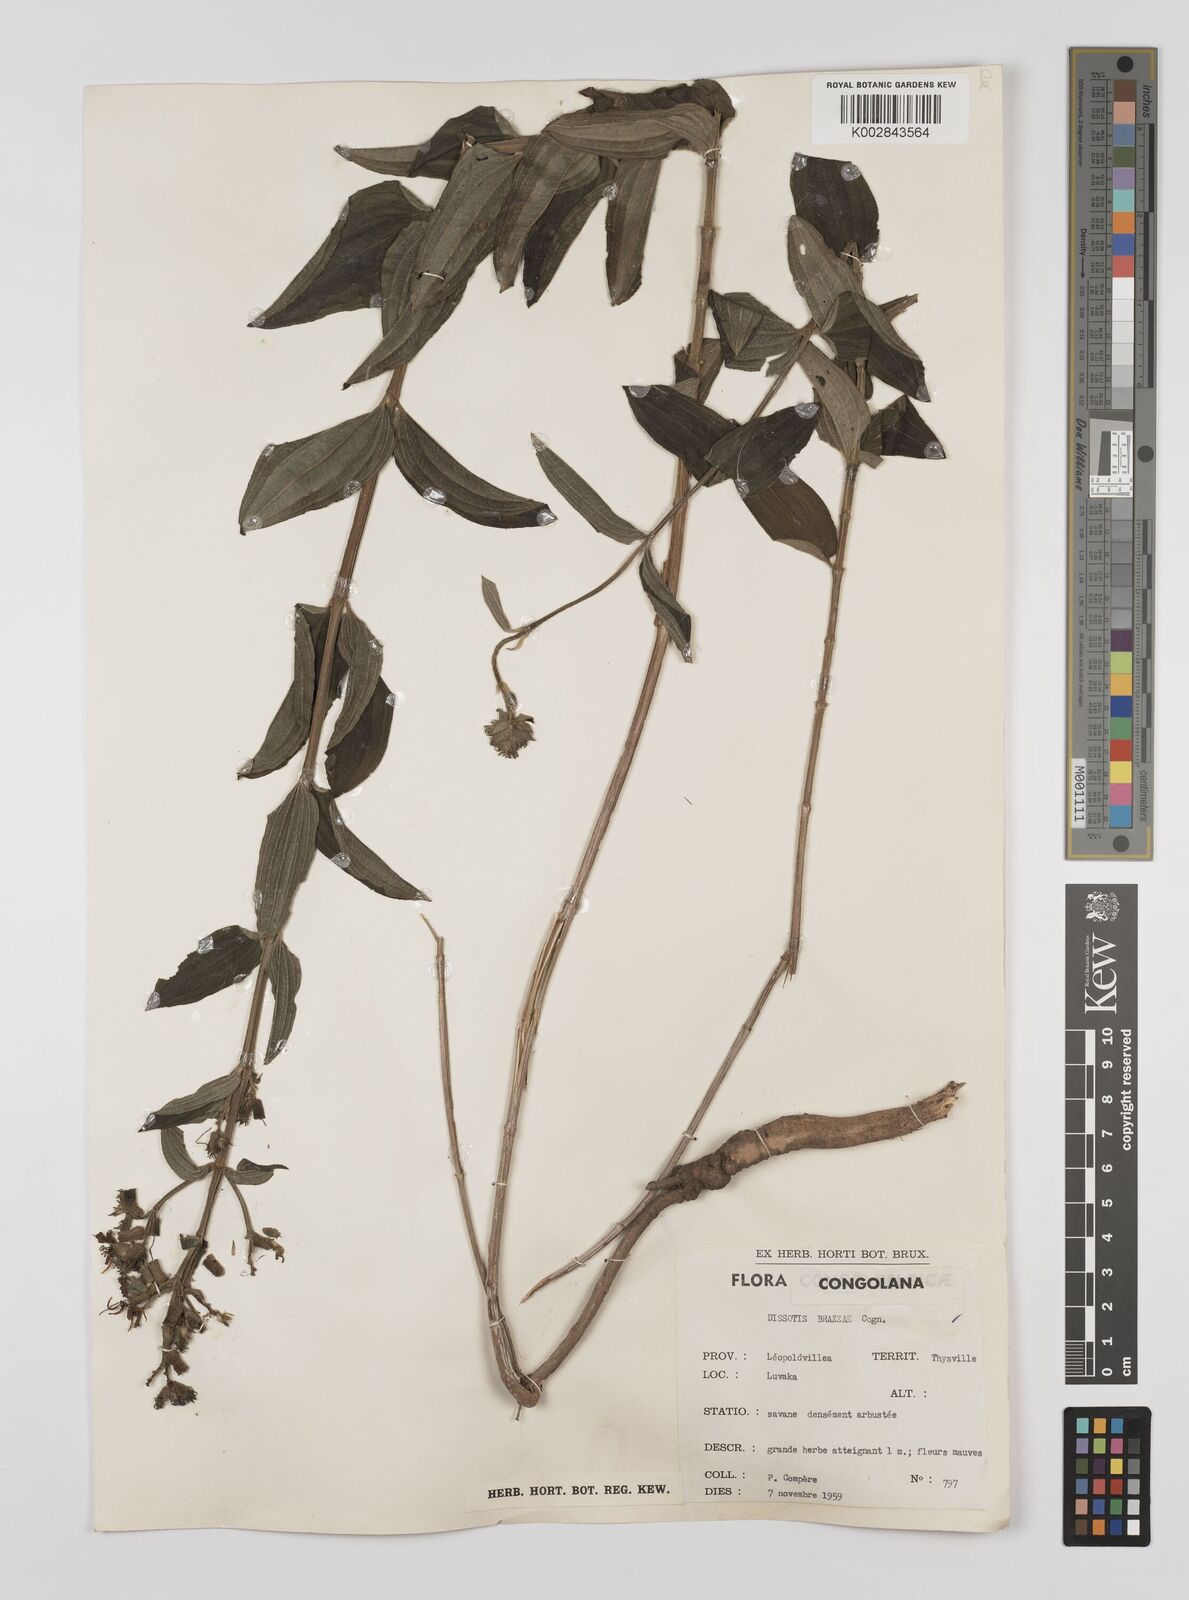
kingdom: Plantae
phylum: Tracheophyta
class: Magnoliopsida
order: Myrtales
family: Melastomataceae
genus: Dupineta
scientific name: Dupineta brazzae
